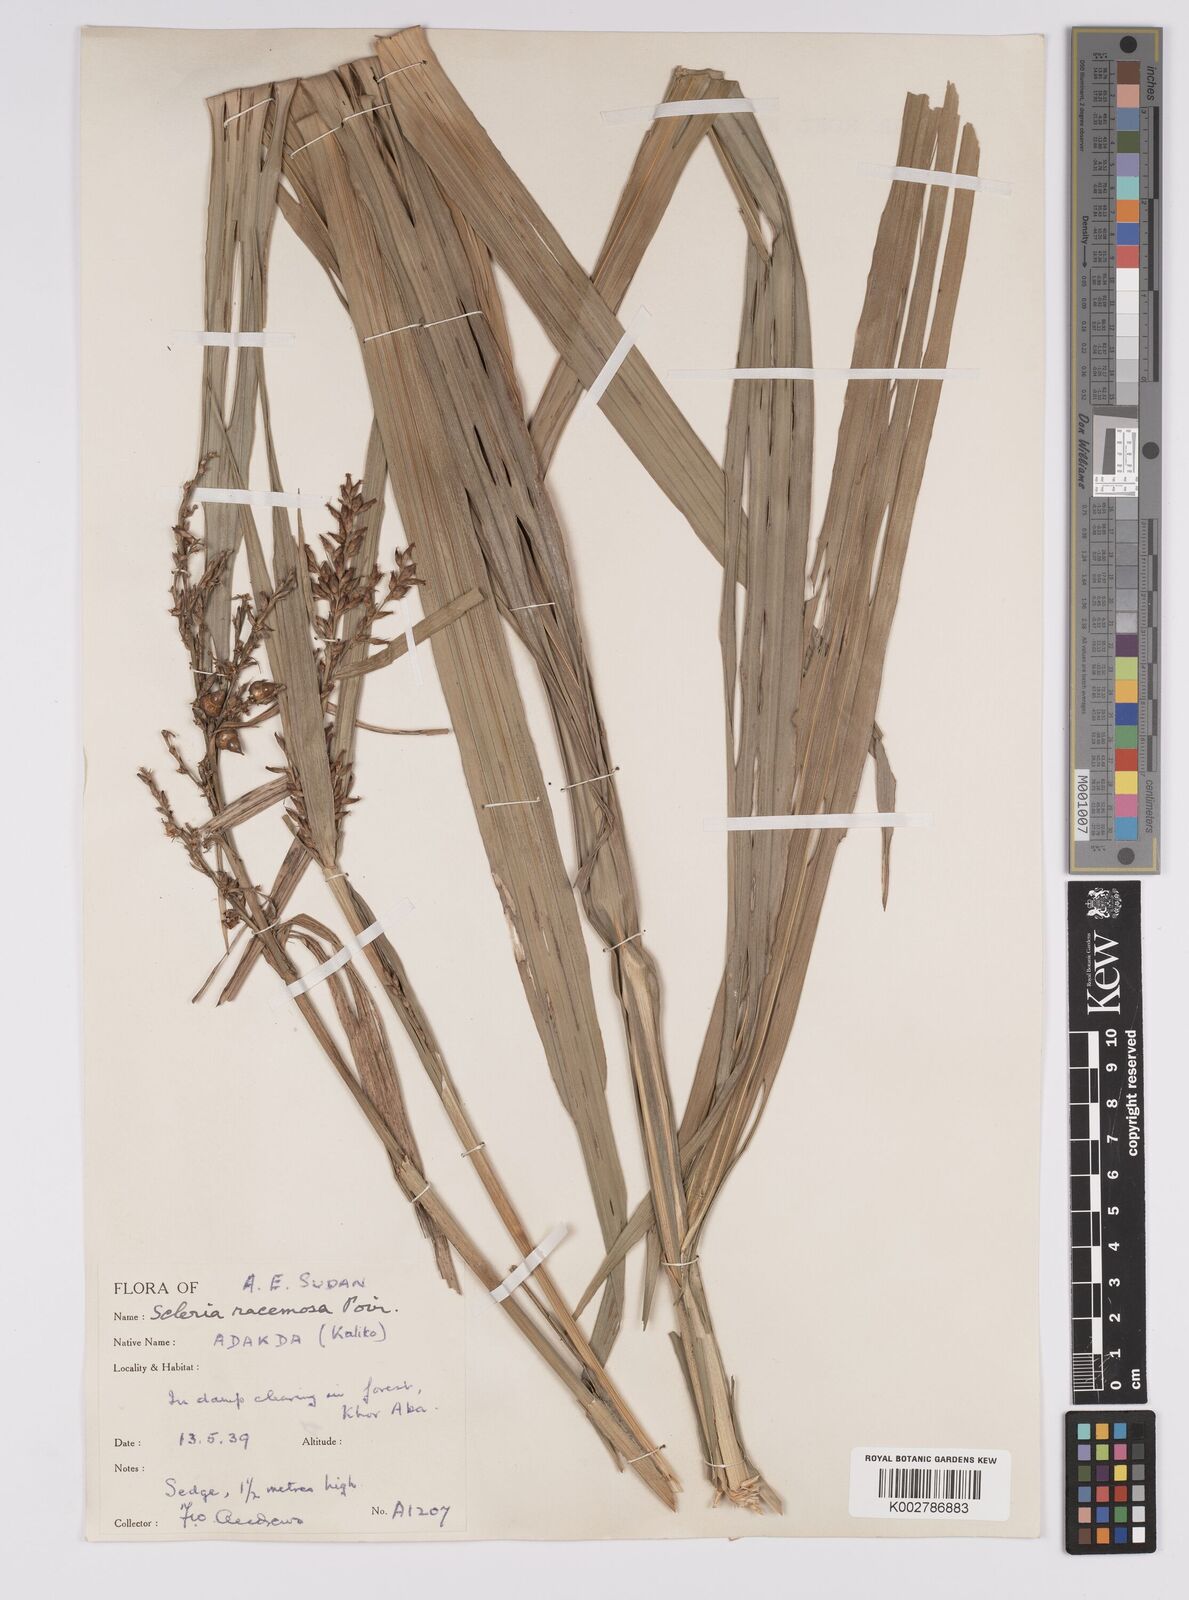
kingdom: Plantae
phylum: Tracheophyta
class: Liliopsida
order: Poales
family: Cyperaceae
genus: Scleria
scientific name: Scleria racemosa
